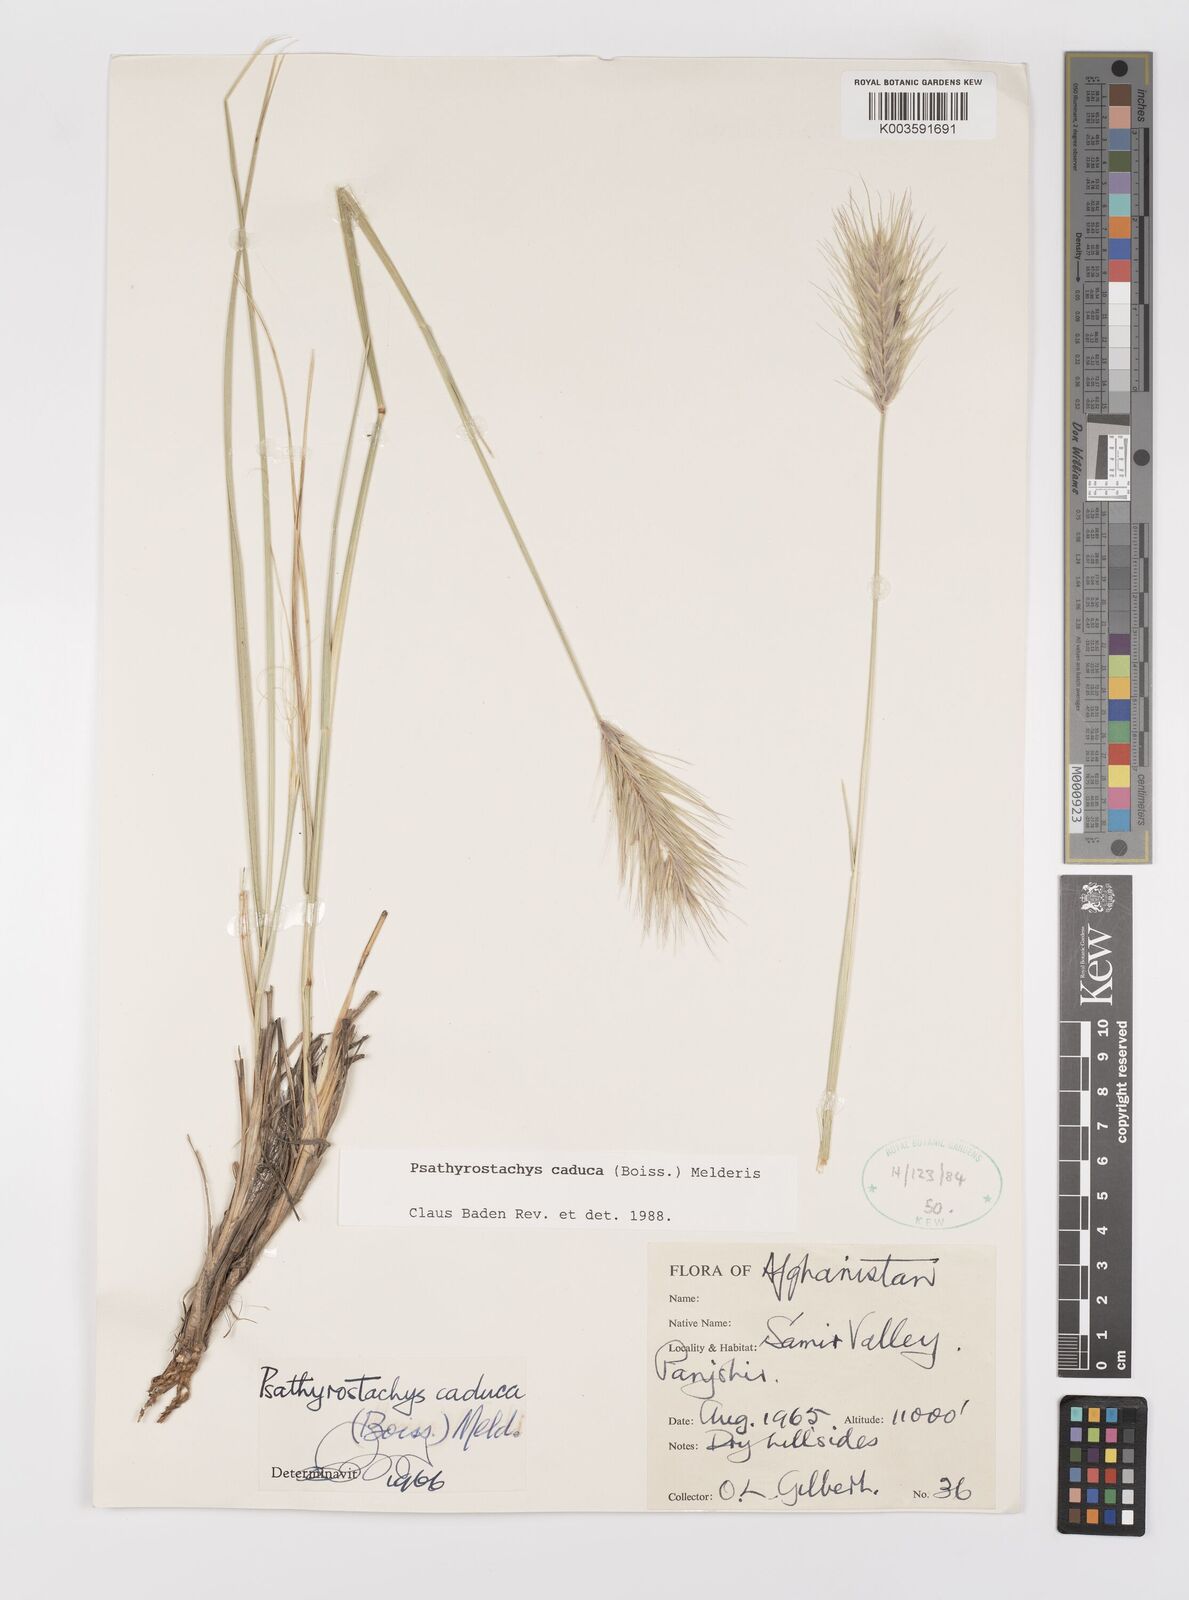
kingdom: Plantae
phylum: Tracheophyta
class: Liliopsida
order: Poales
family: Poaceae
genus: Psathyrostachys
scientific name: Psathyrostachys caduca
